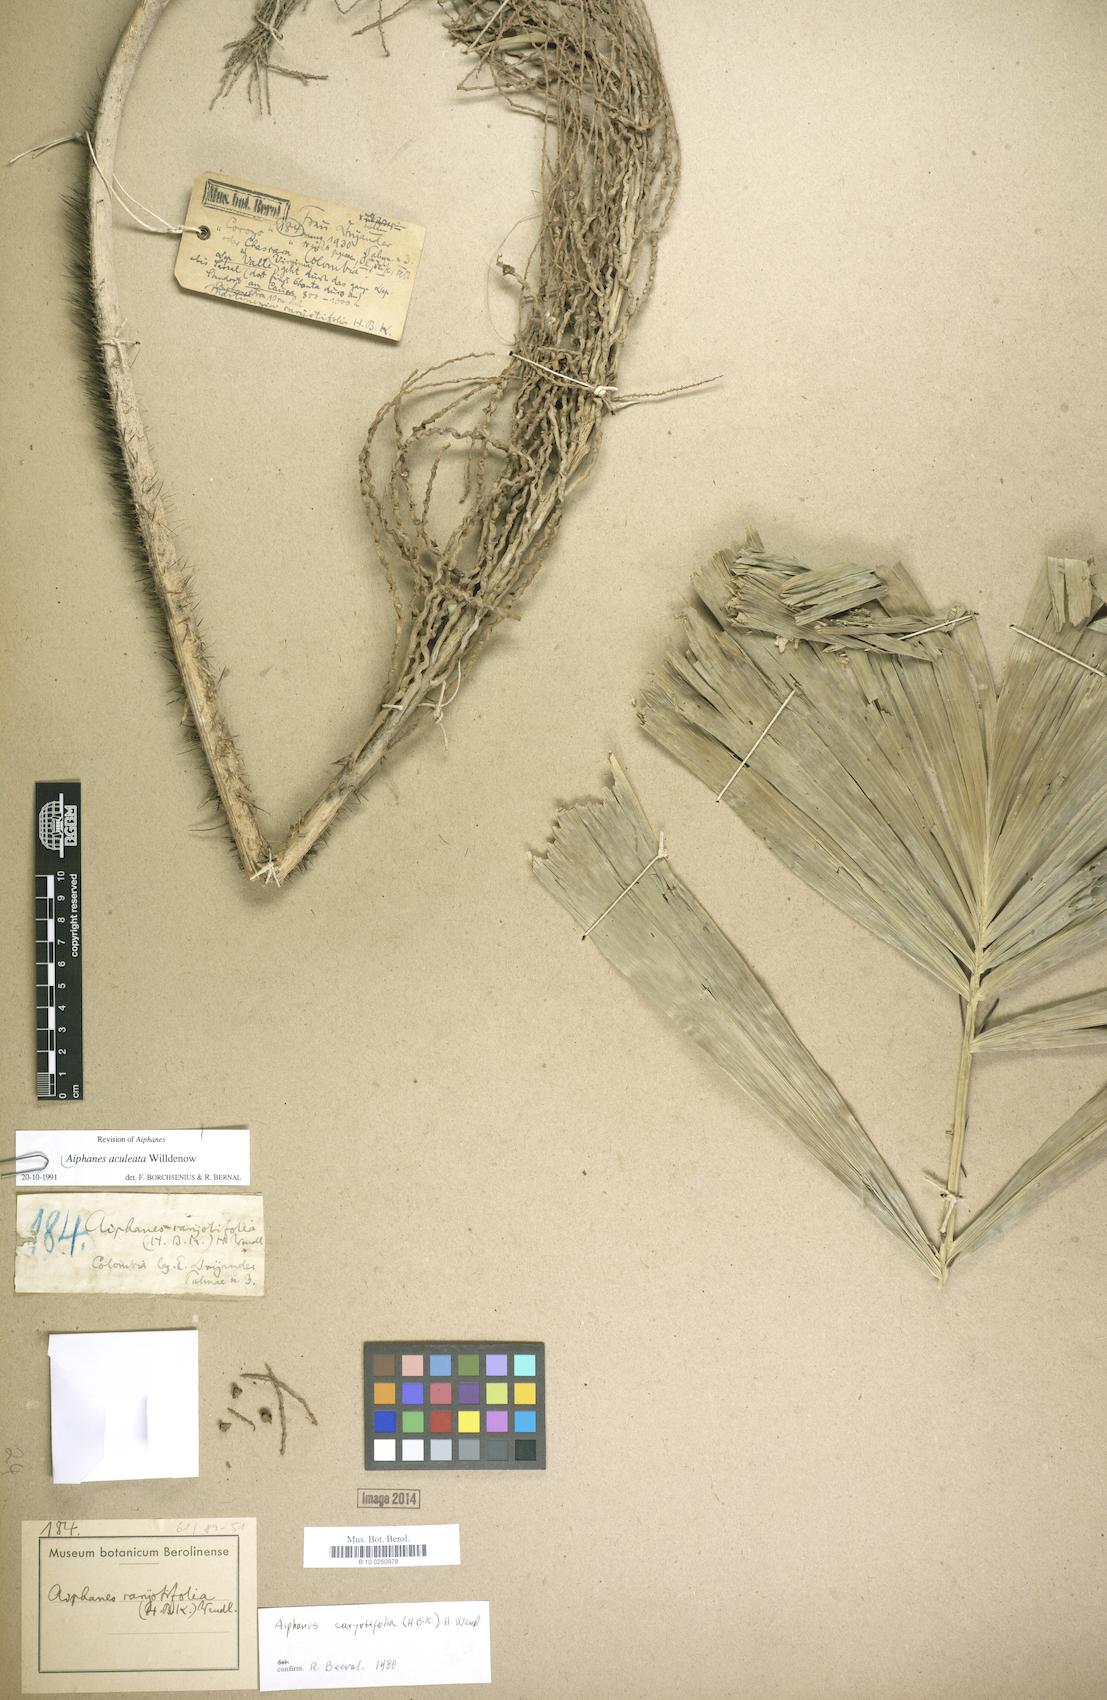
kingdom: Plantae
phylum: Tracheophyta
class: Liliopsida
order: Arecales
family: Arecaceae
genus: Aiphanes
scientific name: Aiphanes horrida
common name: Ruffle palm
